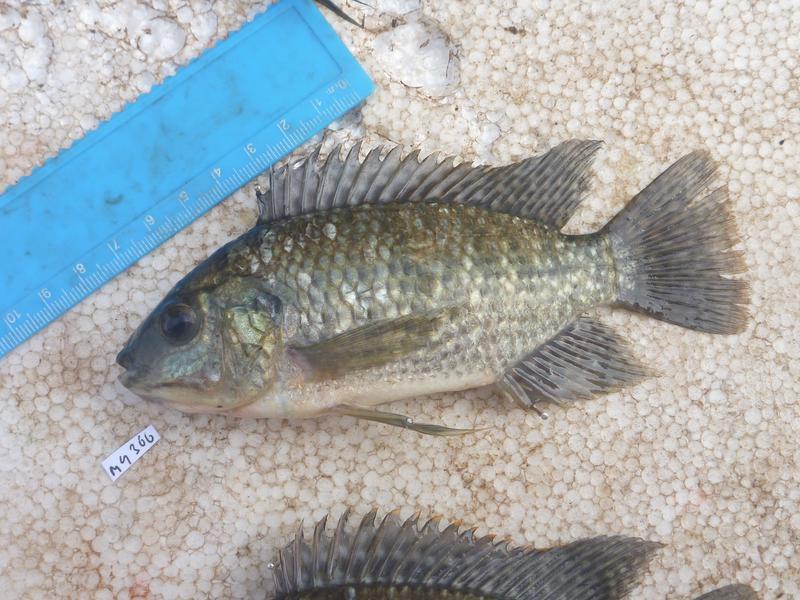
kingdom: Animalia
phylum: Chordata
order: Perciformes
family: Cichlidae
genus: Oreochromis
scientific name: Oreochromis leucostictus
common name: Blue spotted tilapia
